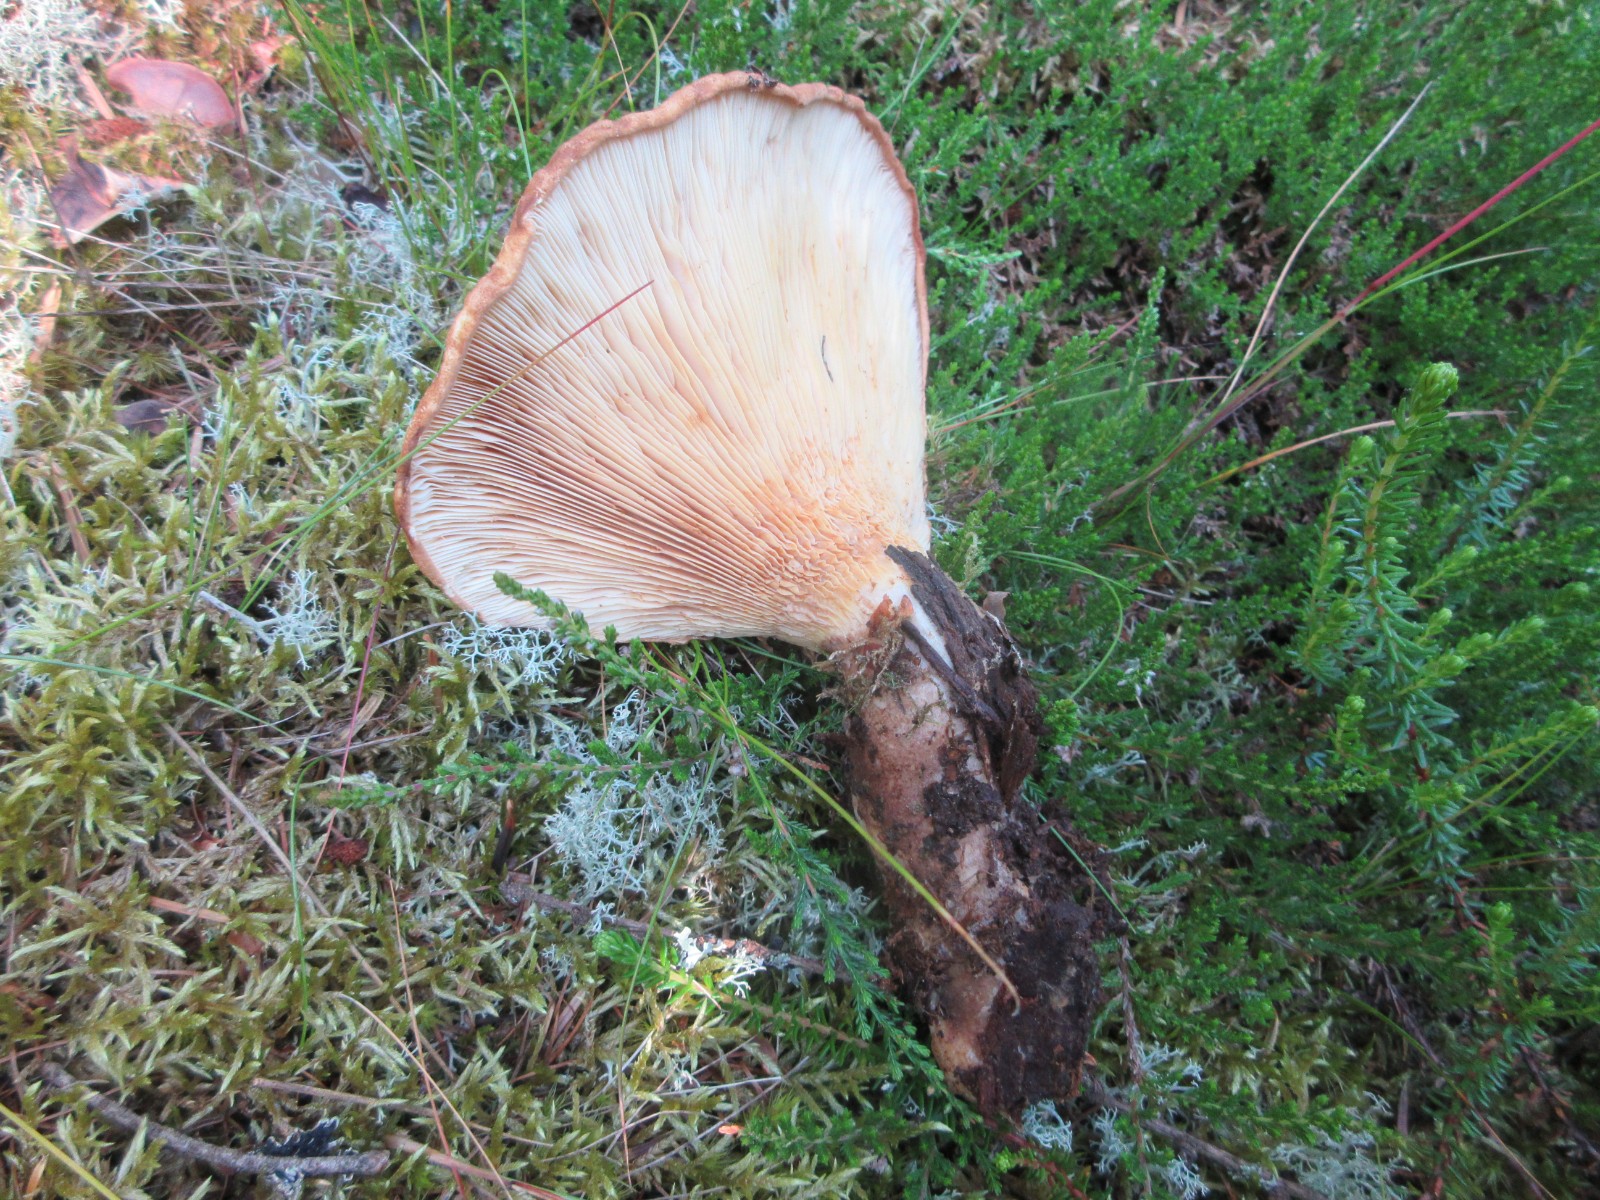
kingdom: Fungi
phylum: Basidiomycota
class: Agaricomycetes
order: Boletales
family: Tapinellaceae
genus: Tapinella
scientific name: Tapinella atrotomentosa
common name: sortfiltet viftesvamp
